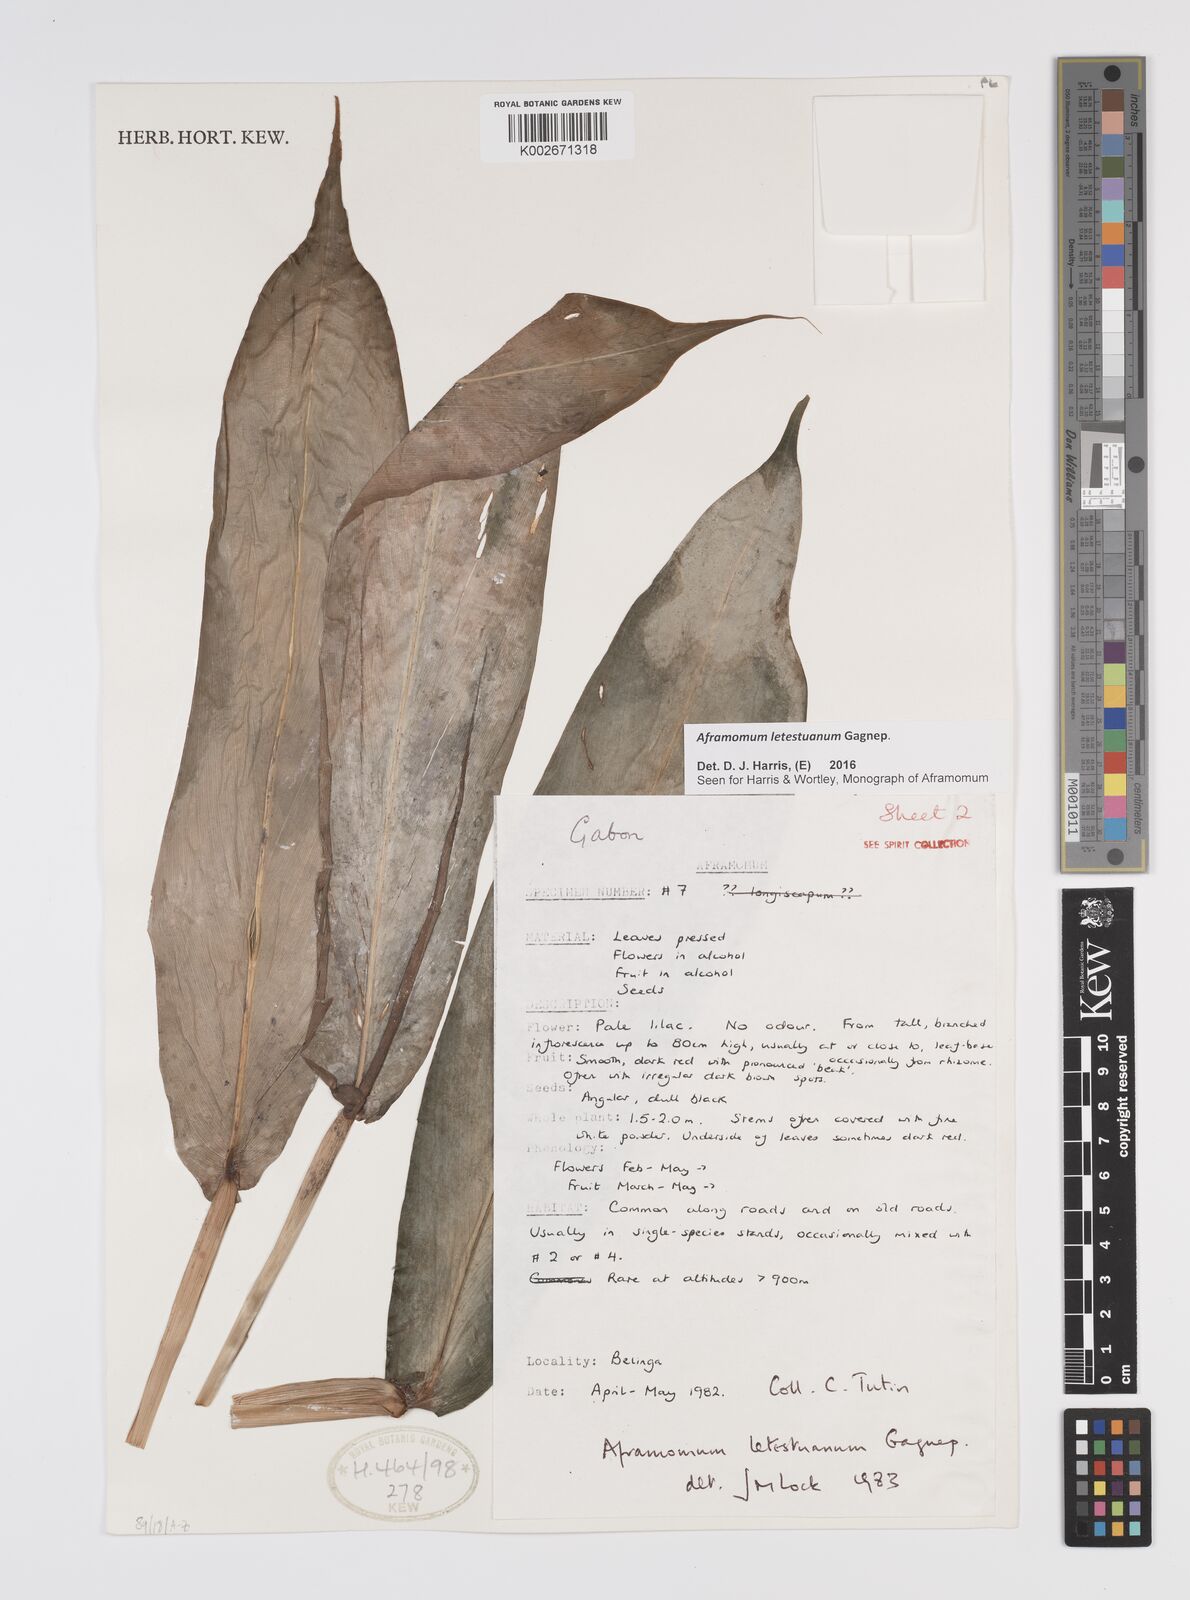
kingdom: Plantae
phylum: Tracheophyta
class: Liliopsida
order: Zingiberales
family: Zingiberaceae
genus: Aframomum
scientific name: Aframomum letestuanum
